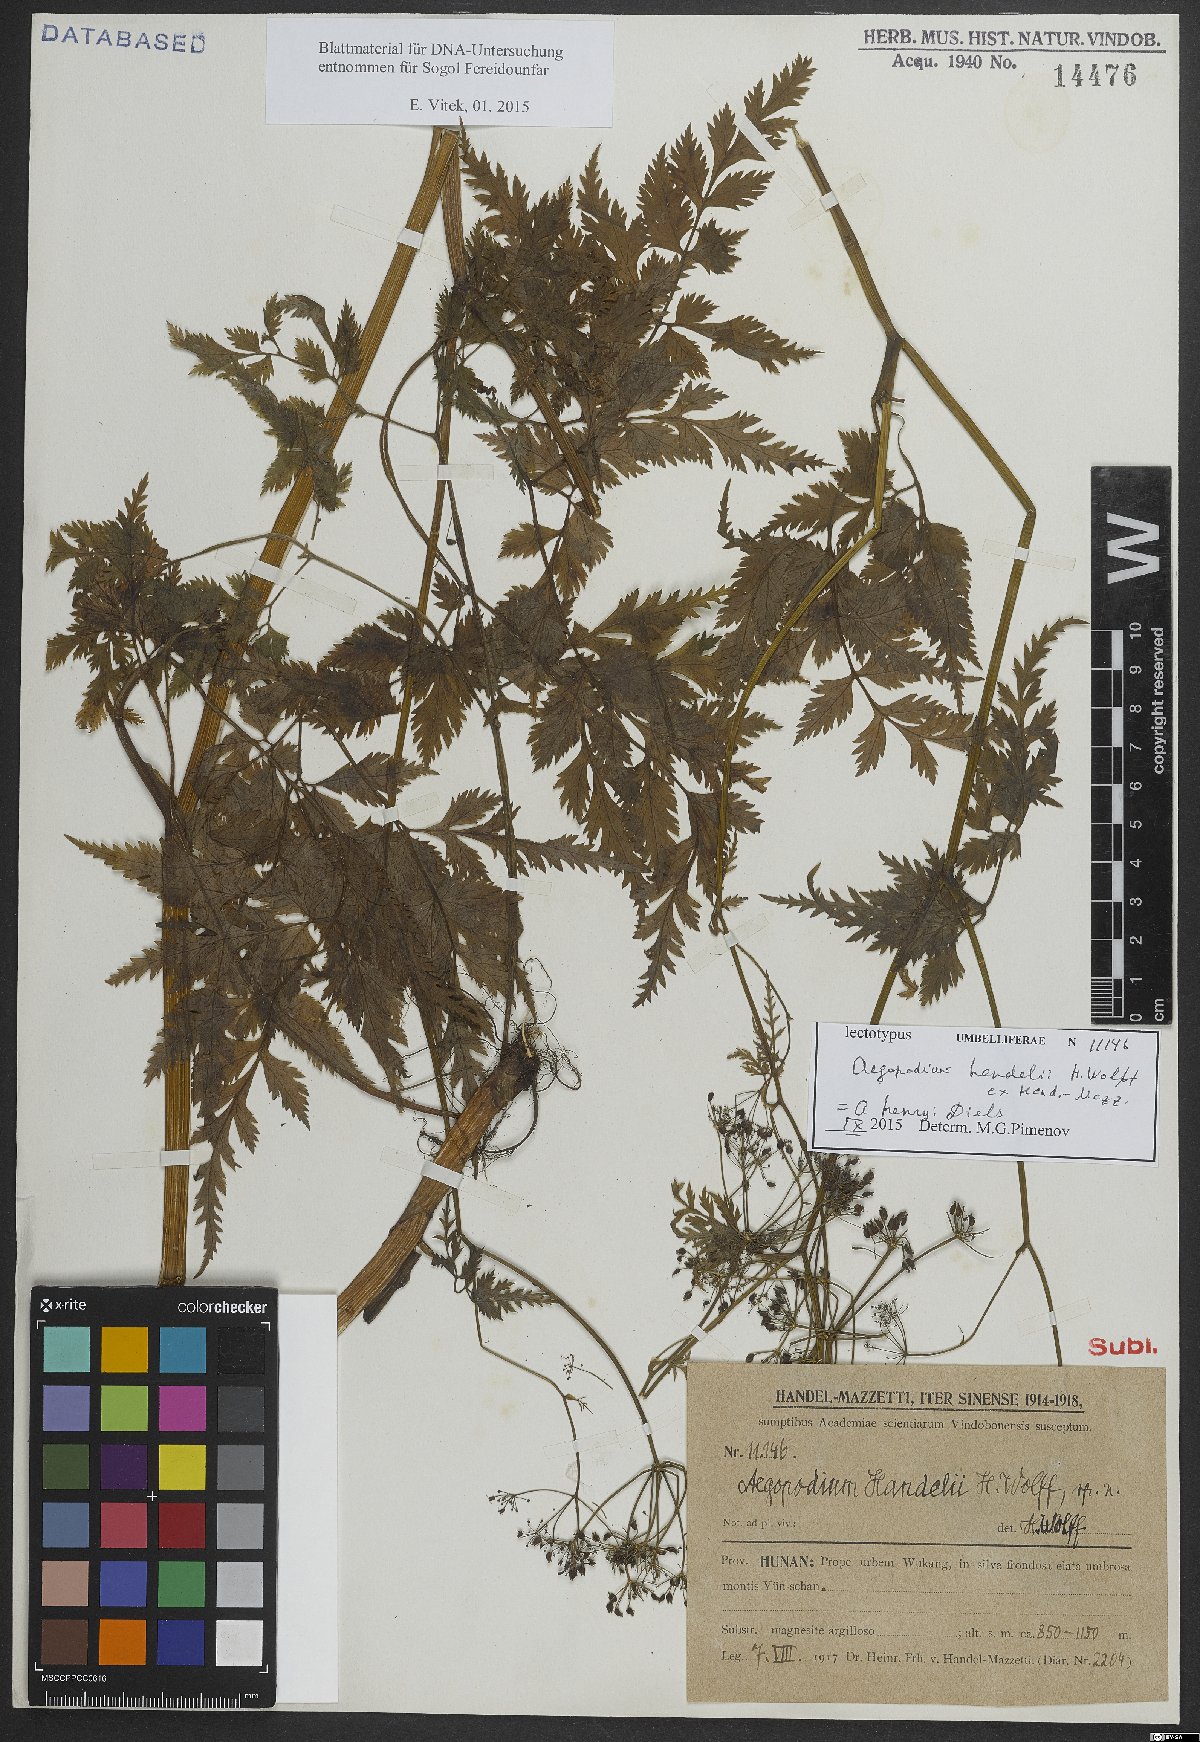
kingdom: Plantae
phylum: Tracheophyta
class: Magnoliopsida
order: Apiales
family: Apiaceae
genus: Aegopodium
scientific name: Aegopodium henryi
